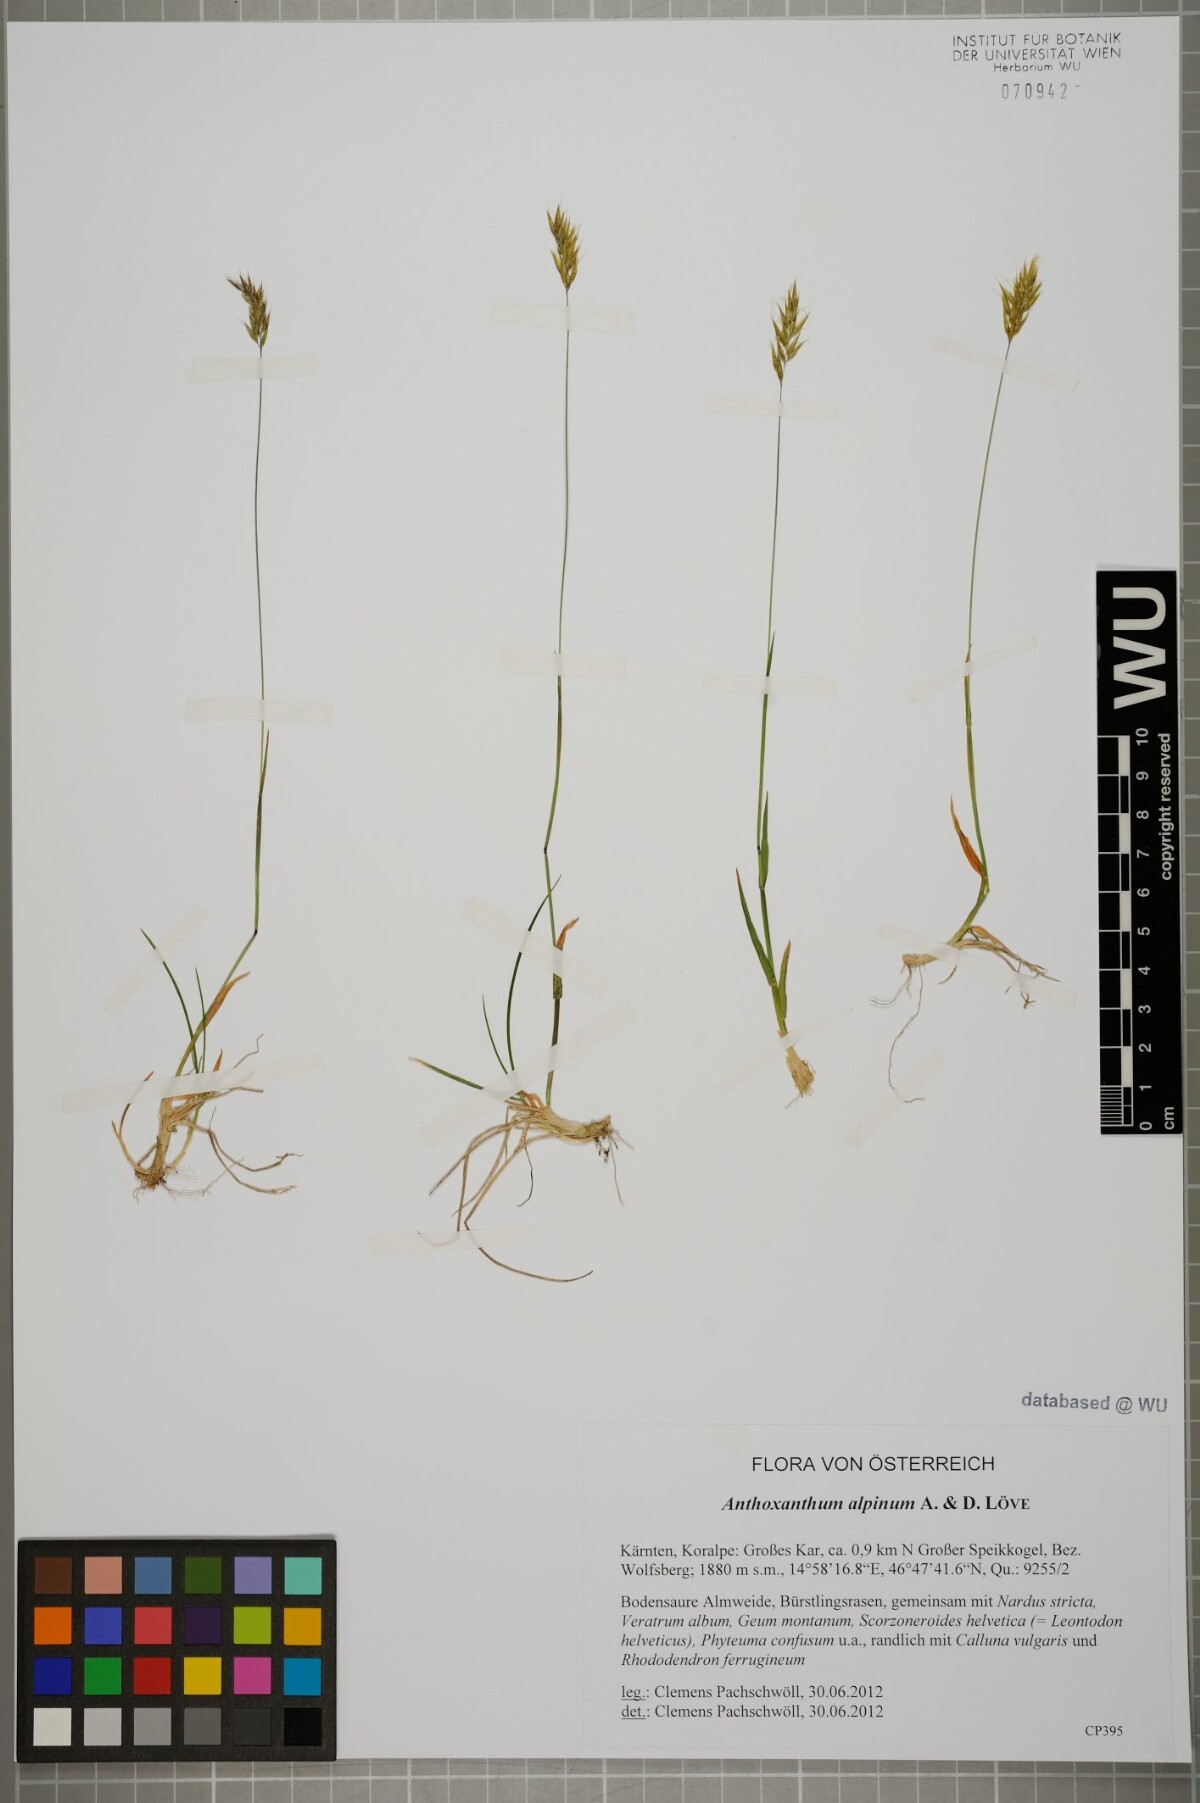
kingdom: Plantae
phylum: Tracheophyta
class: Liliopsida
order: Poales
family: Poaceae
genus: Anthoxanthum
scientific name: Anthoxanthum nipponicum
